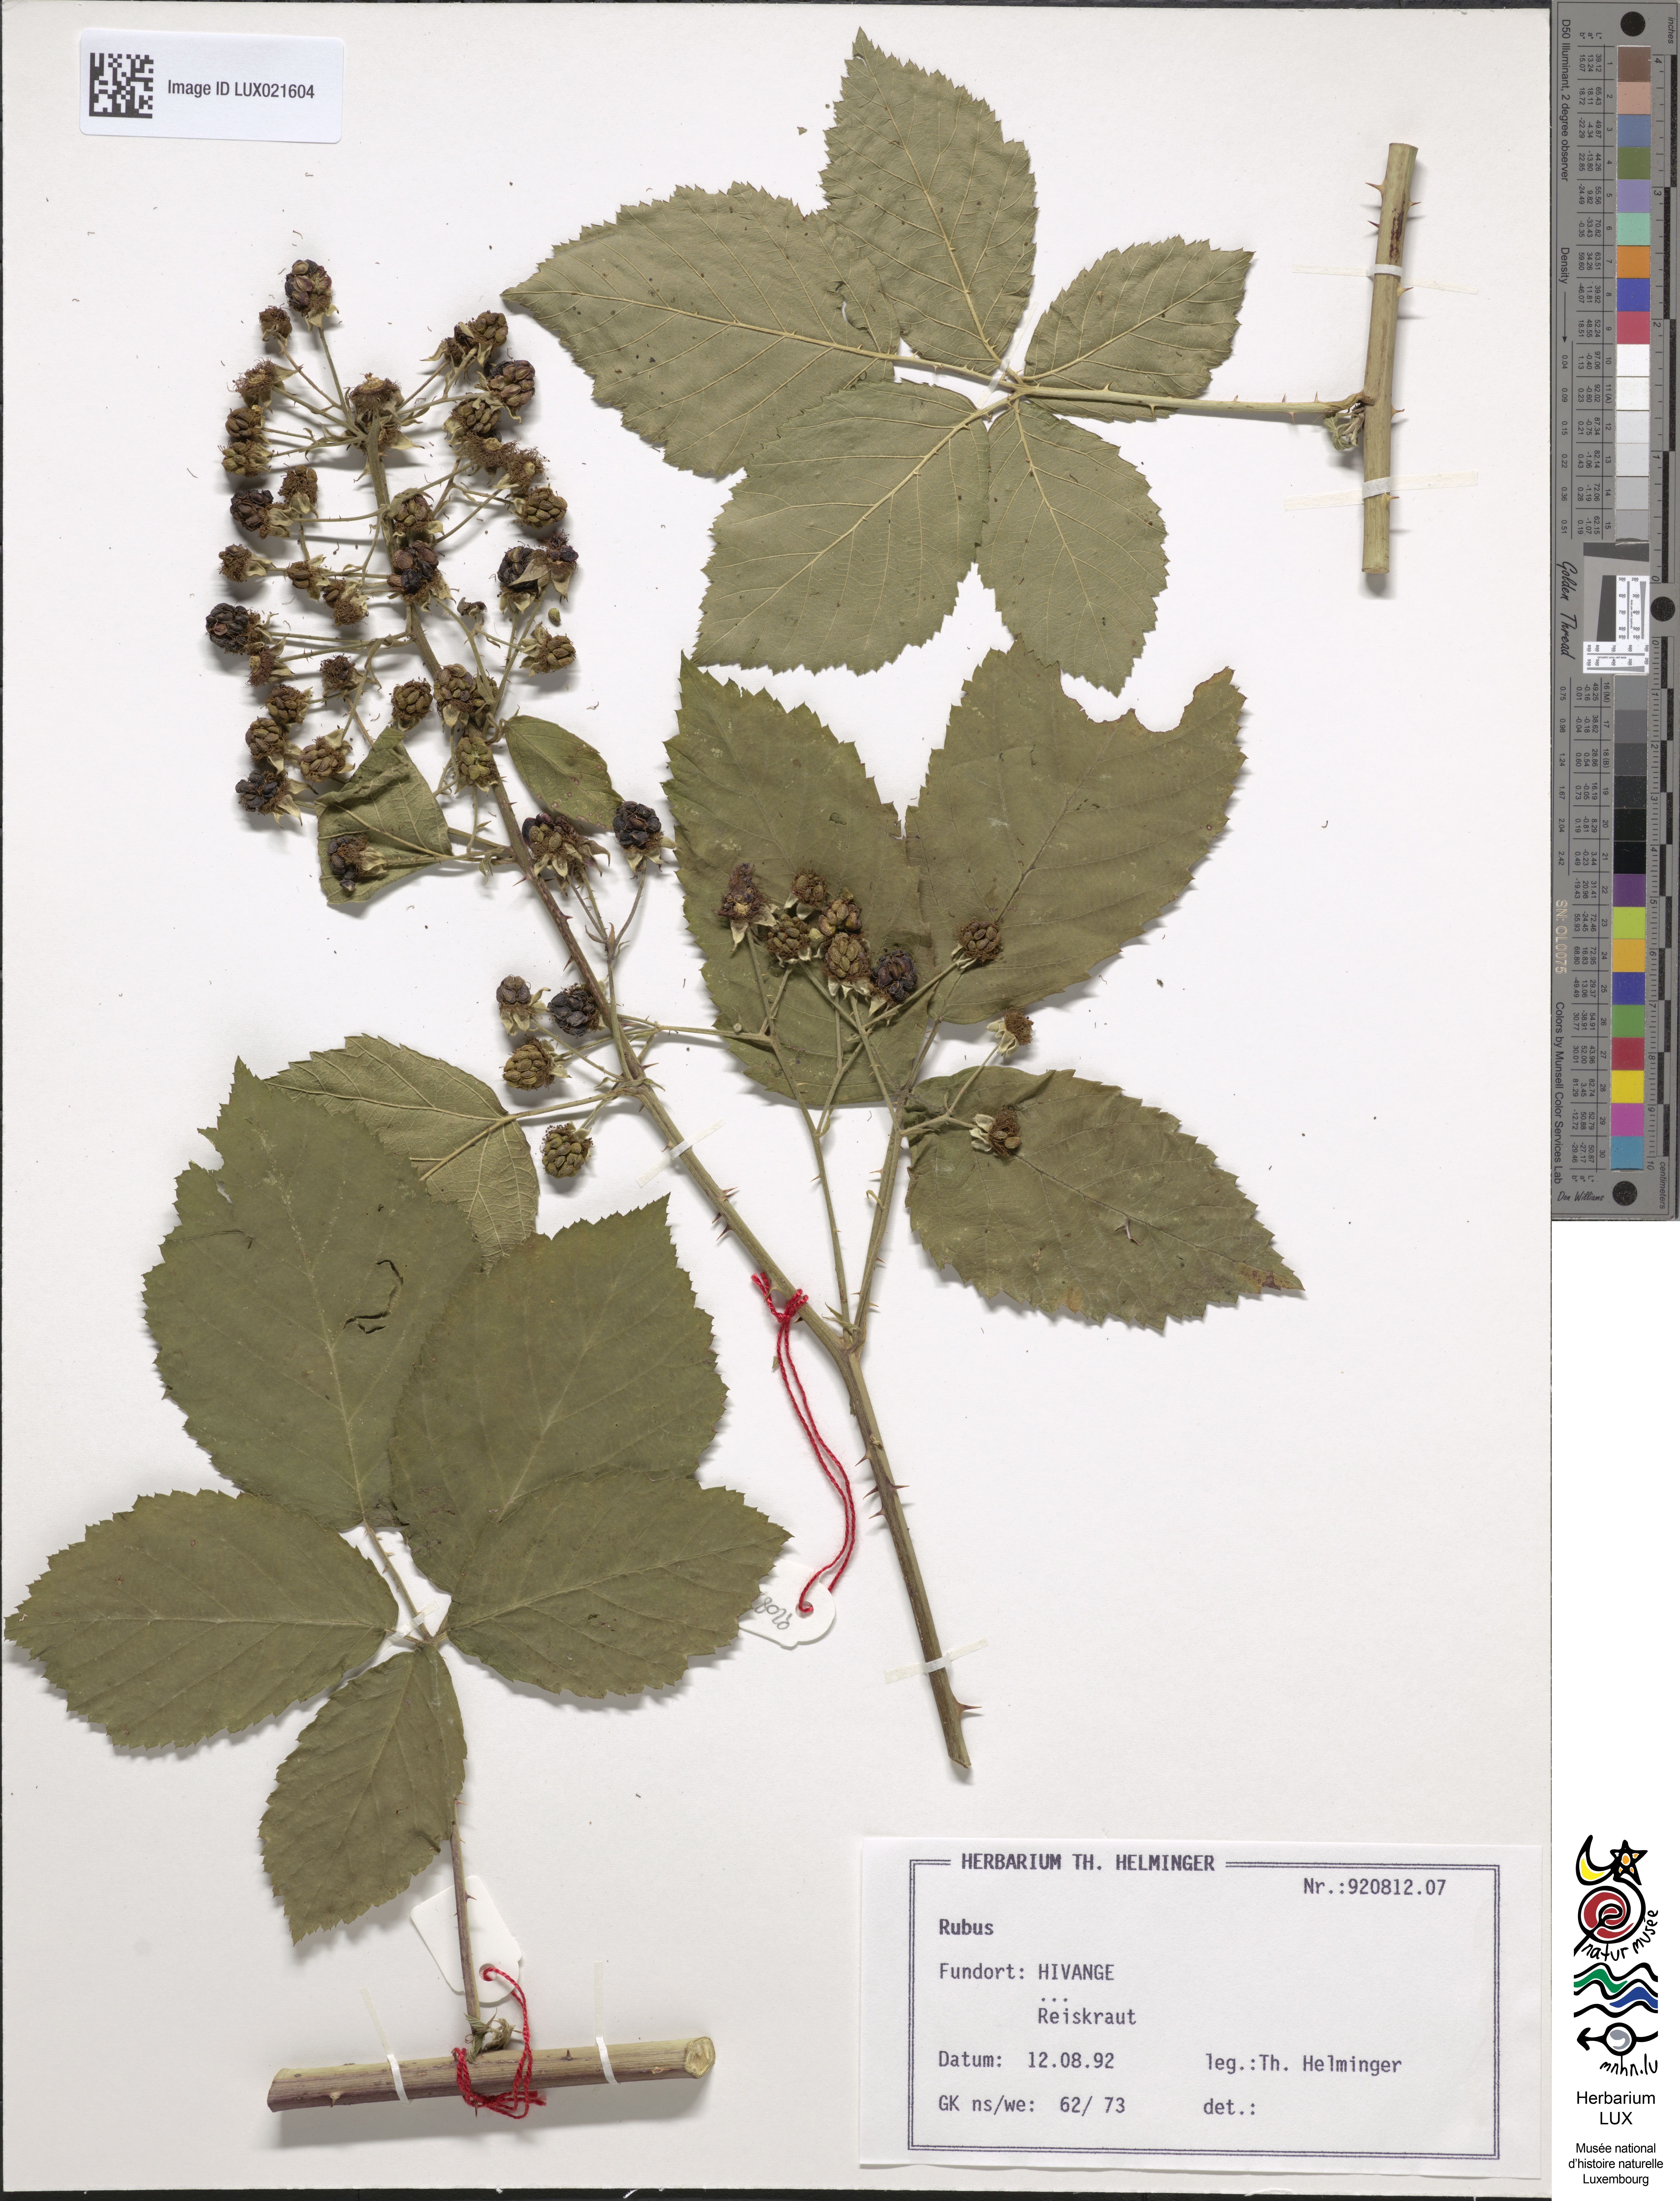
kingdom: Plantae
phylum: Tracheophyta
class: Magnoliopsida
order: Rosales
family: Rosaceae
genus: Rubus
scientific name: Rubus
